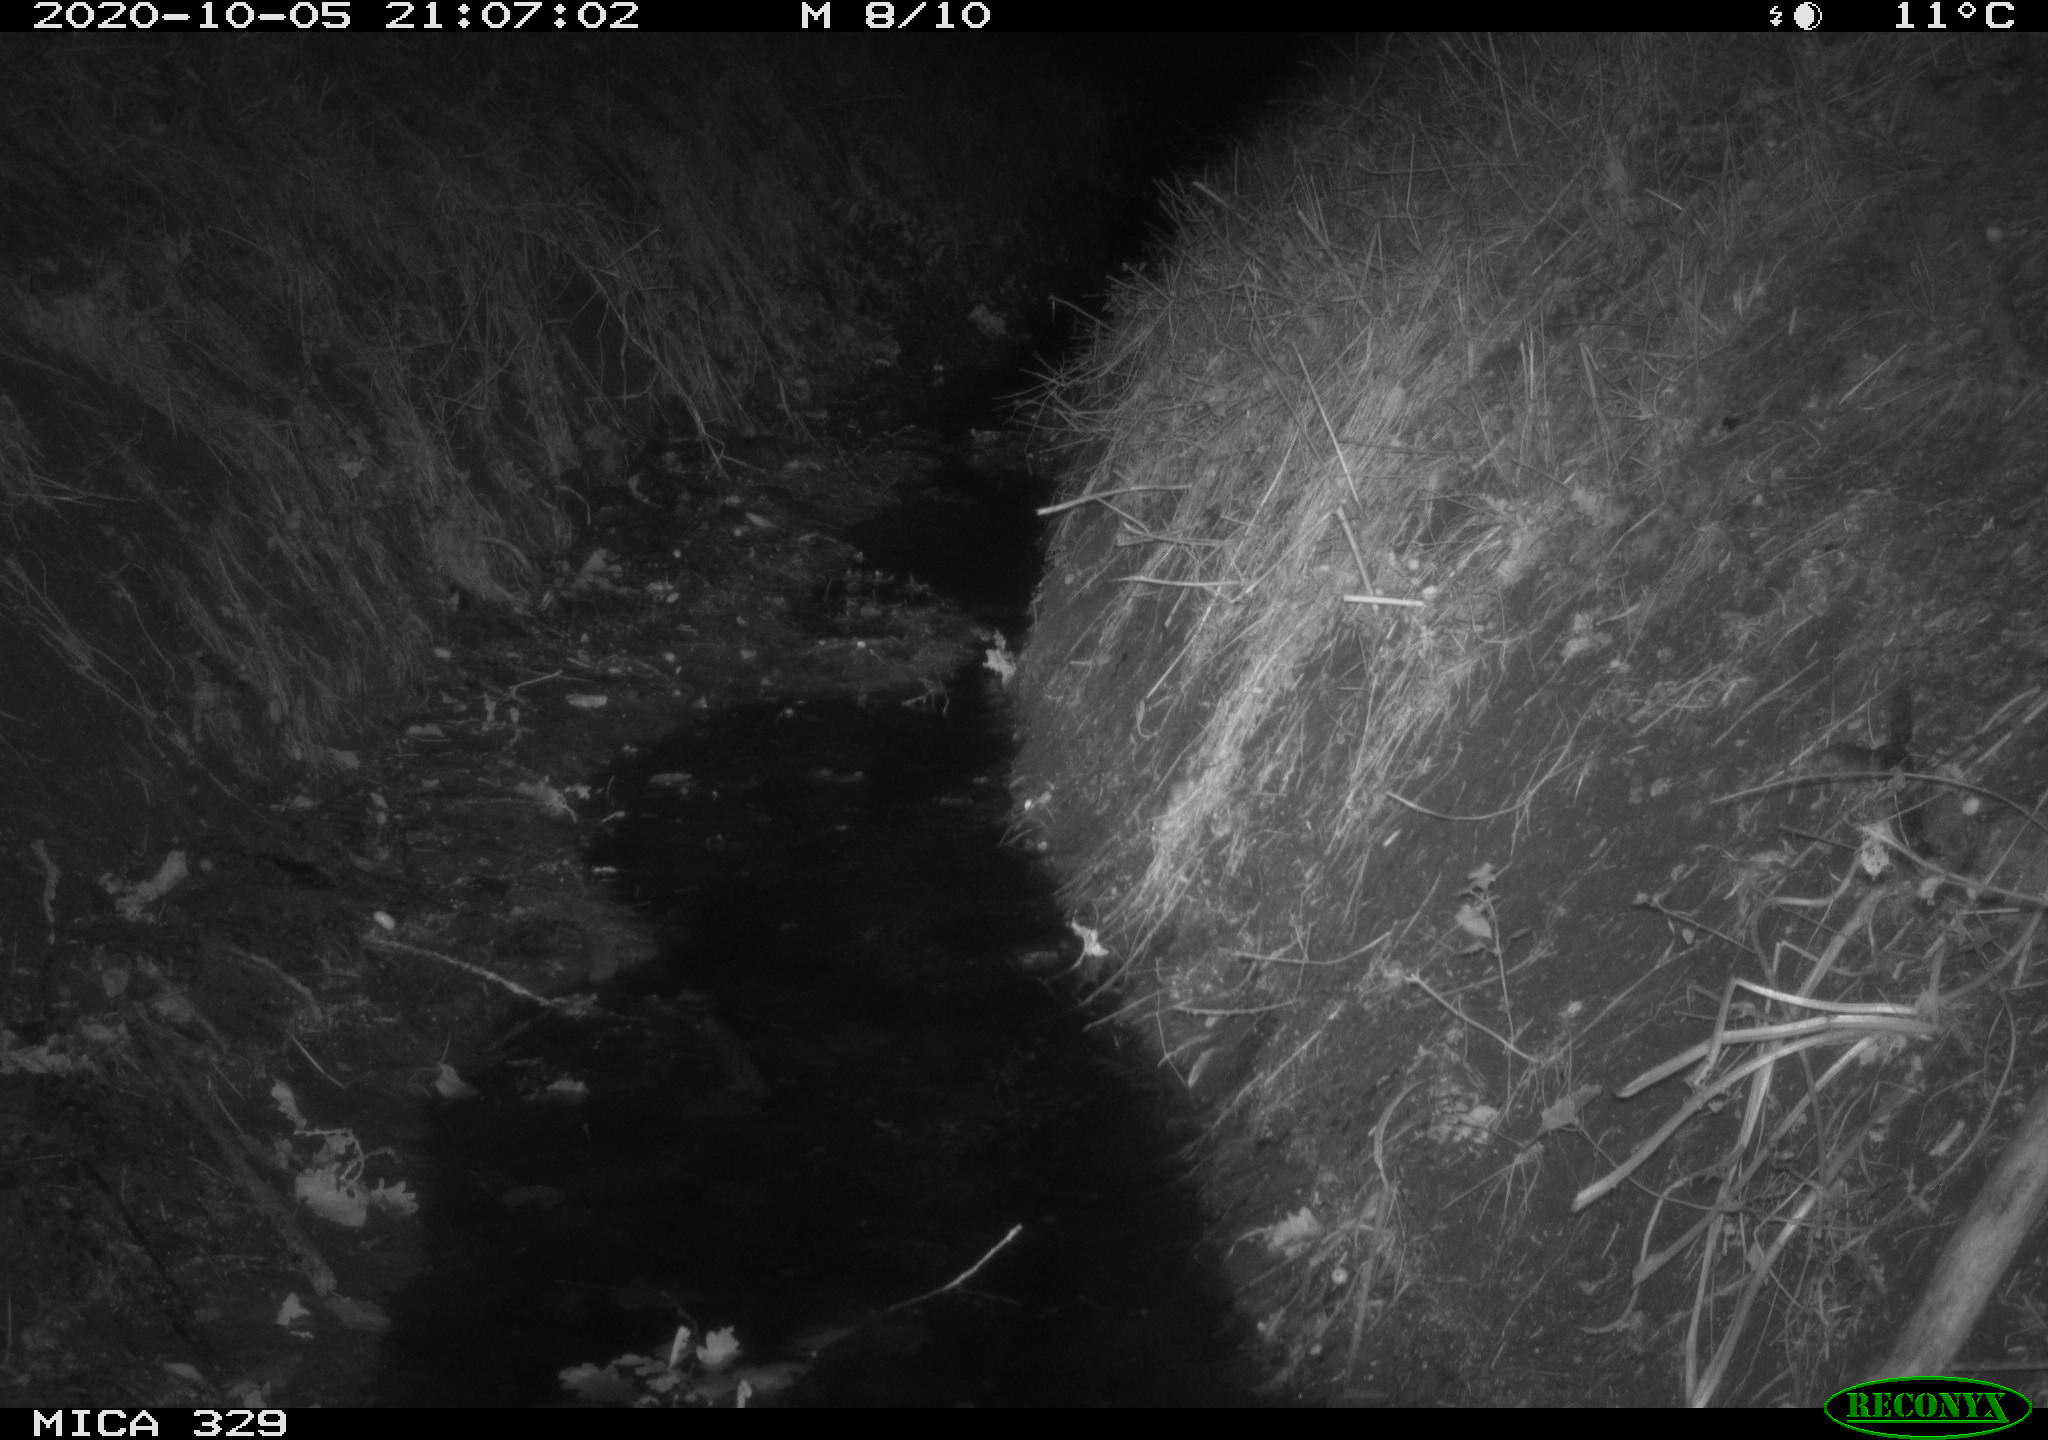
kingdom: Animalia
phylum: Chordata
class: Mammalia
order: Rodentia
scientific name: Rodentia
